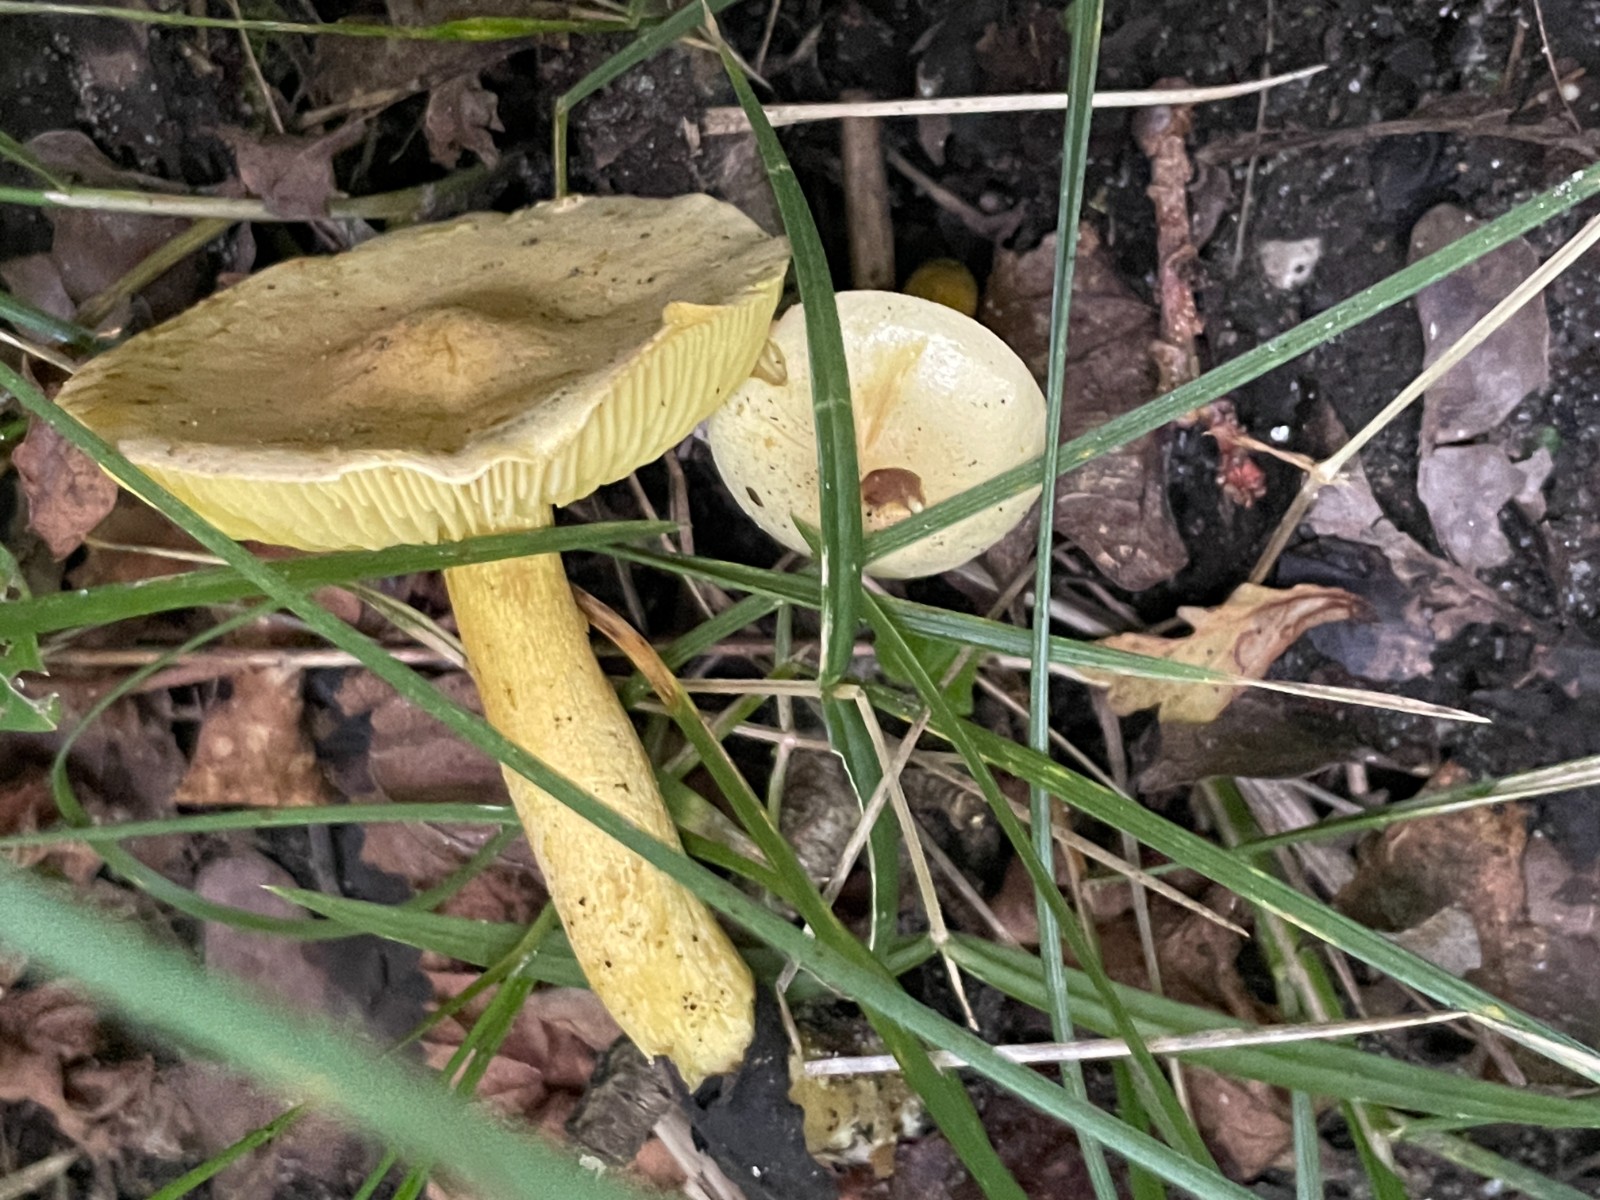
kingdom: Fungi
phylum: Basidiomycota
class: Agaricomycetes
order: Agaricales
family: Tricholomataceae
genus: Tricholoma
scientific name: Tricholoma sulphureum
